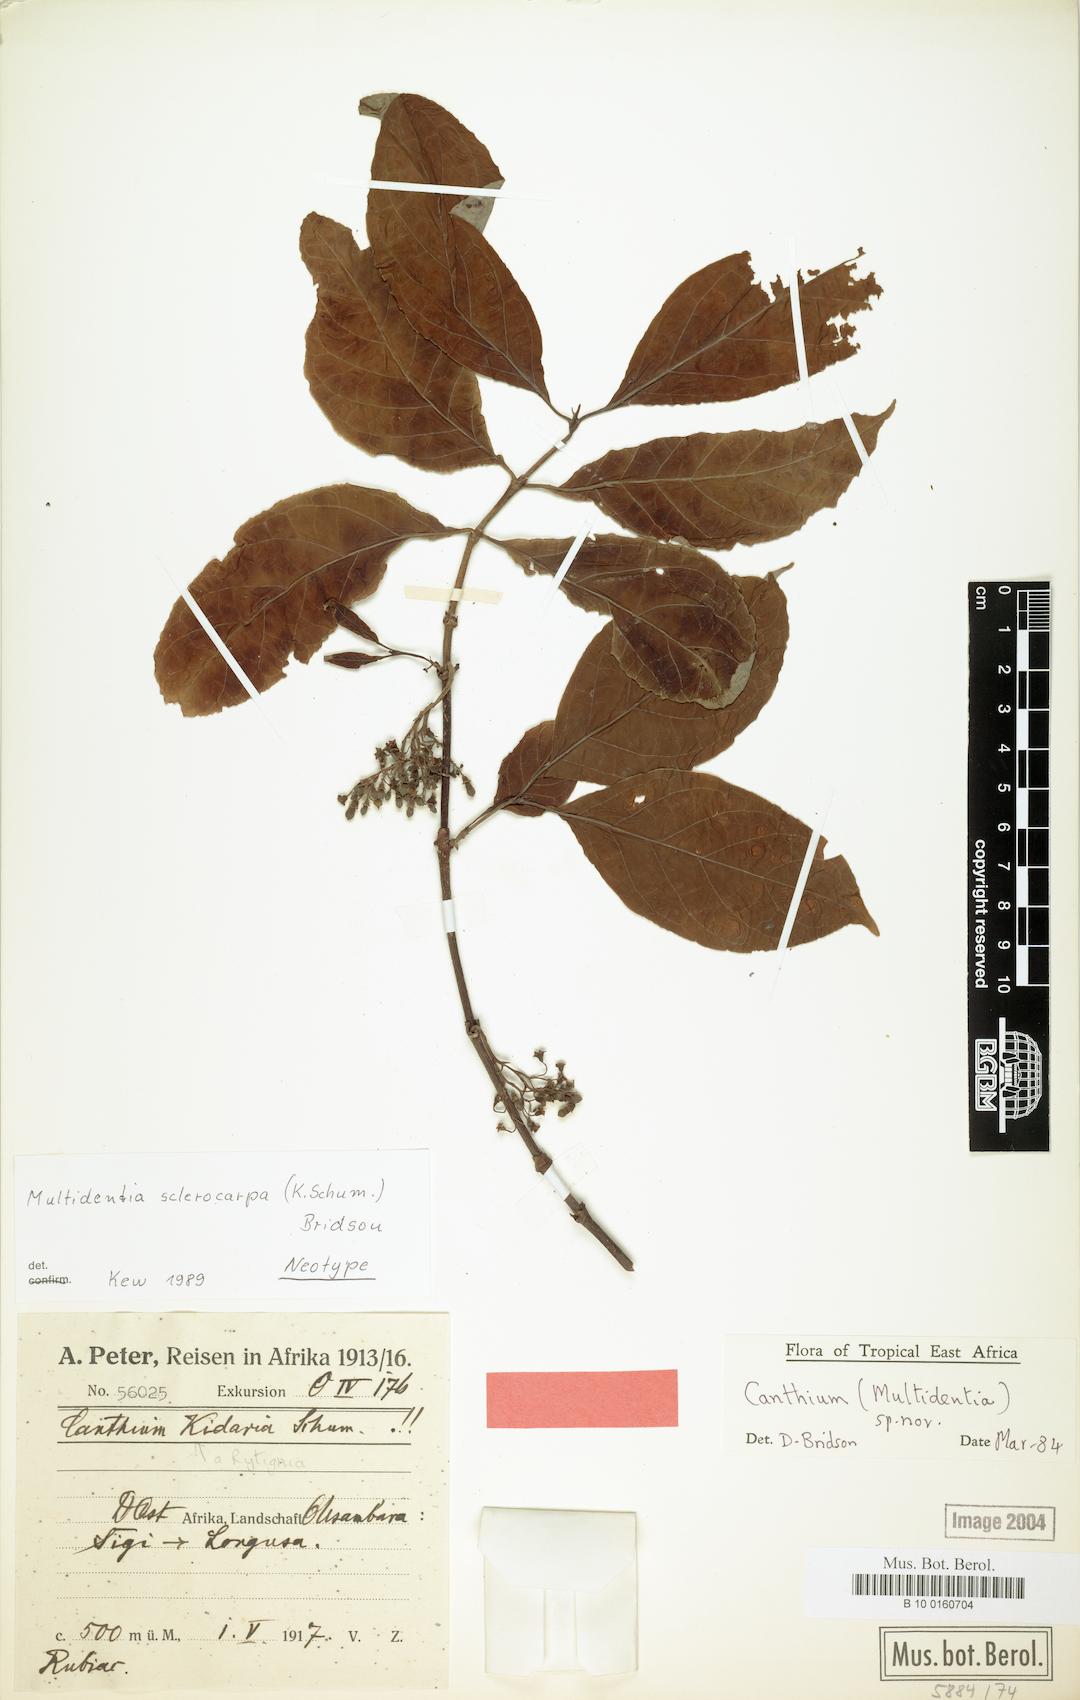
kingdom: Plantae
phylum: Tracheophyta
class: Magnoliopsida
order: Gentianales
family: Rubiaceae
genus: Multidentia
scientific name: Multidentia sclerocarpa
